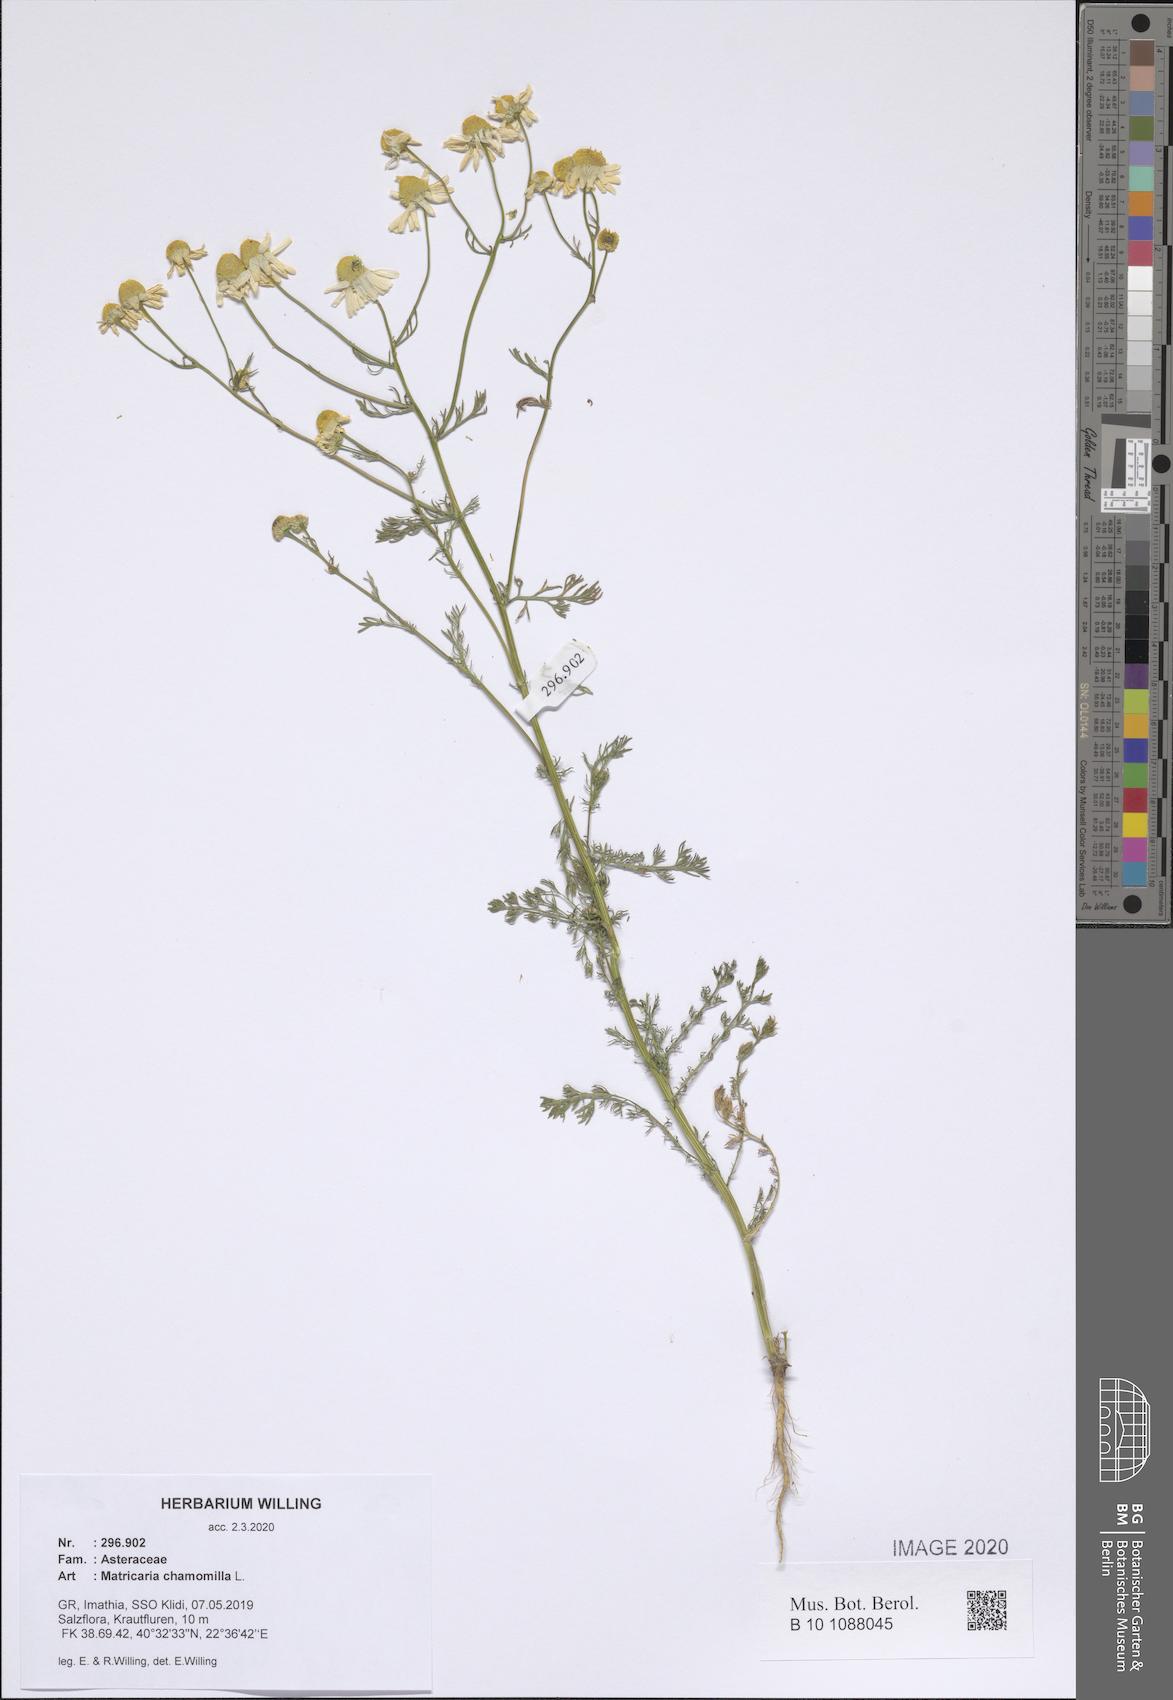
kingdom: Plantae
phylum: Tracheophyta
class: Magnoliopsida
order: Asterales
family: Asteraceae
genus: Matricaria
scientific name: Matricaria chamomilla
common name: Scented mayweed
